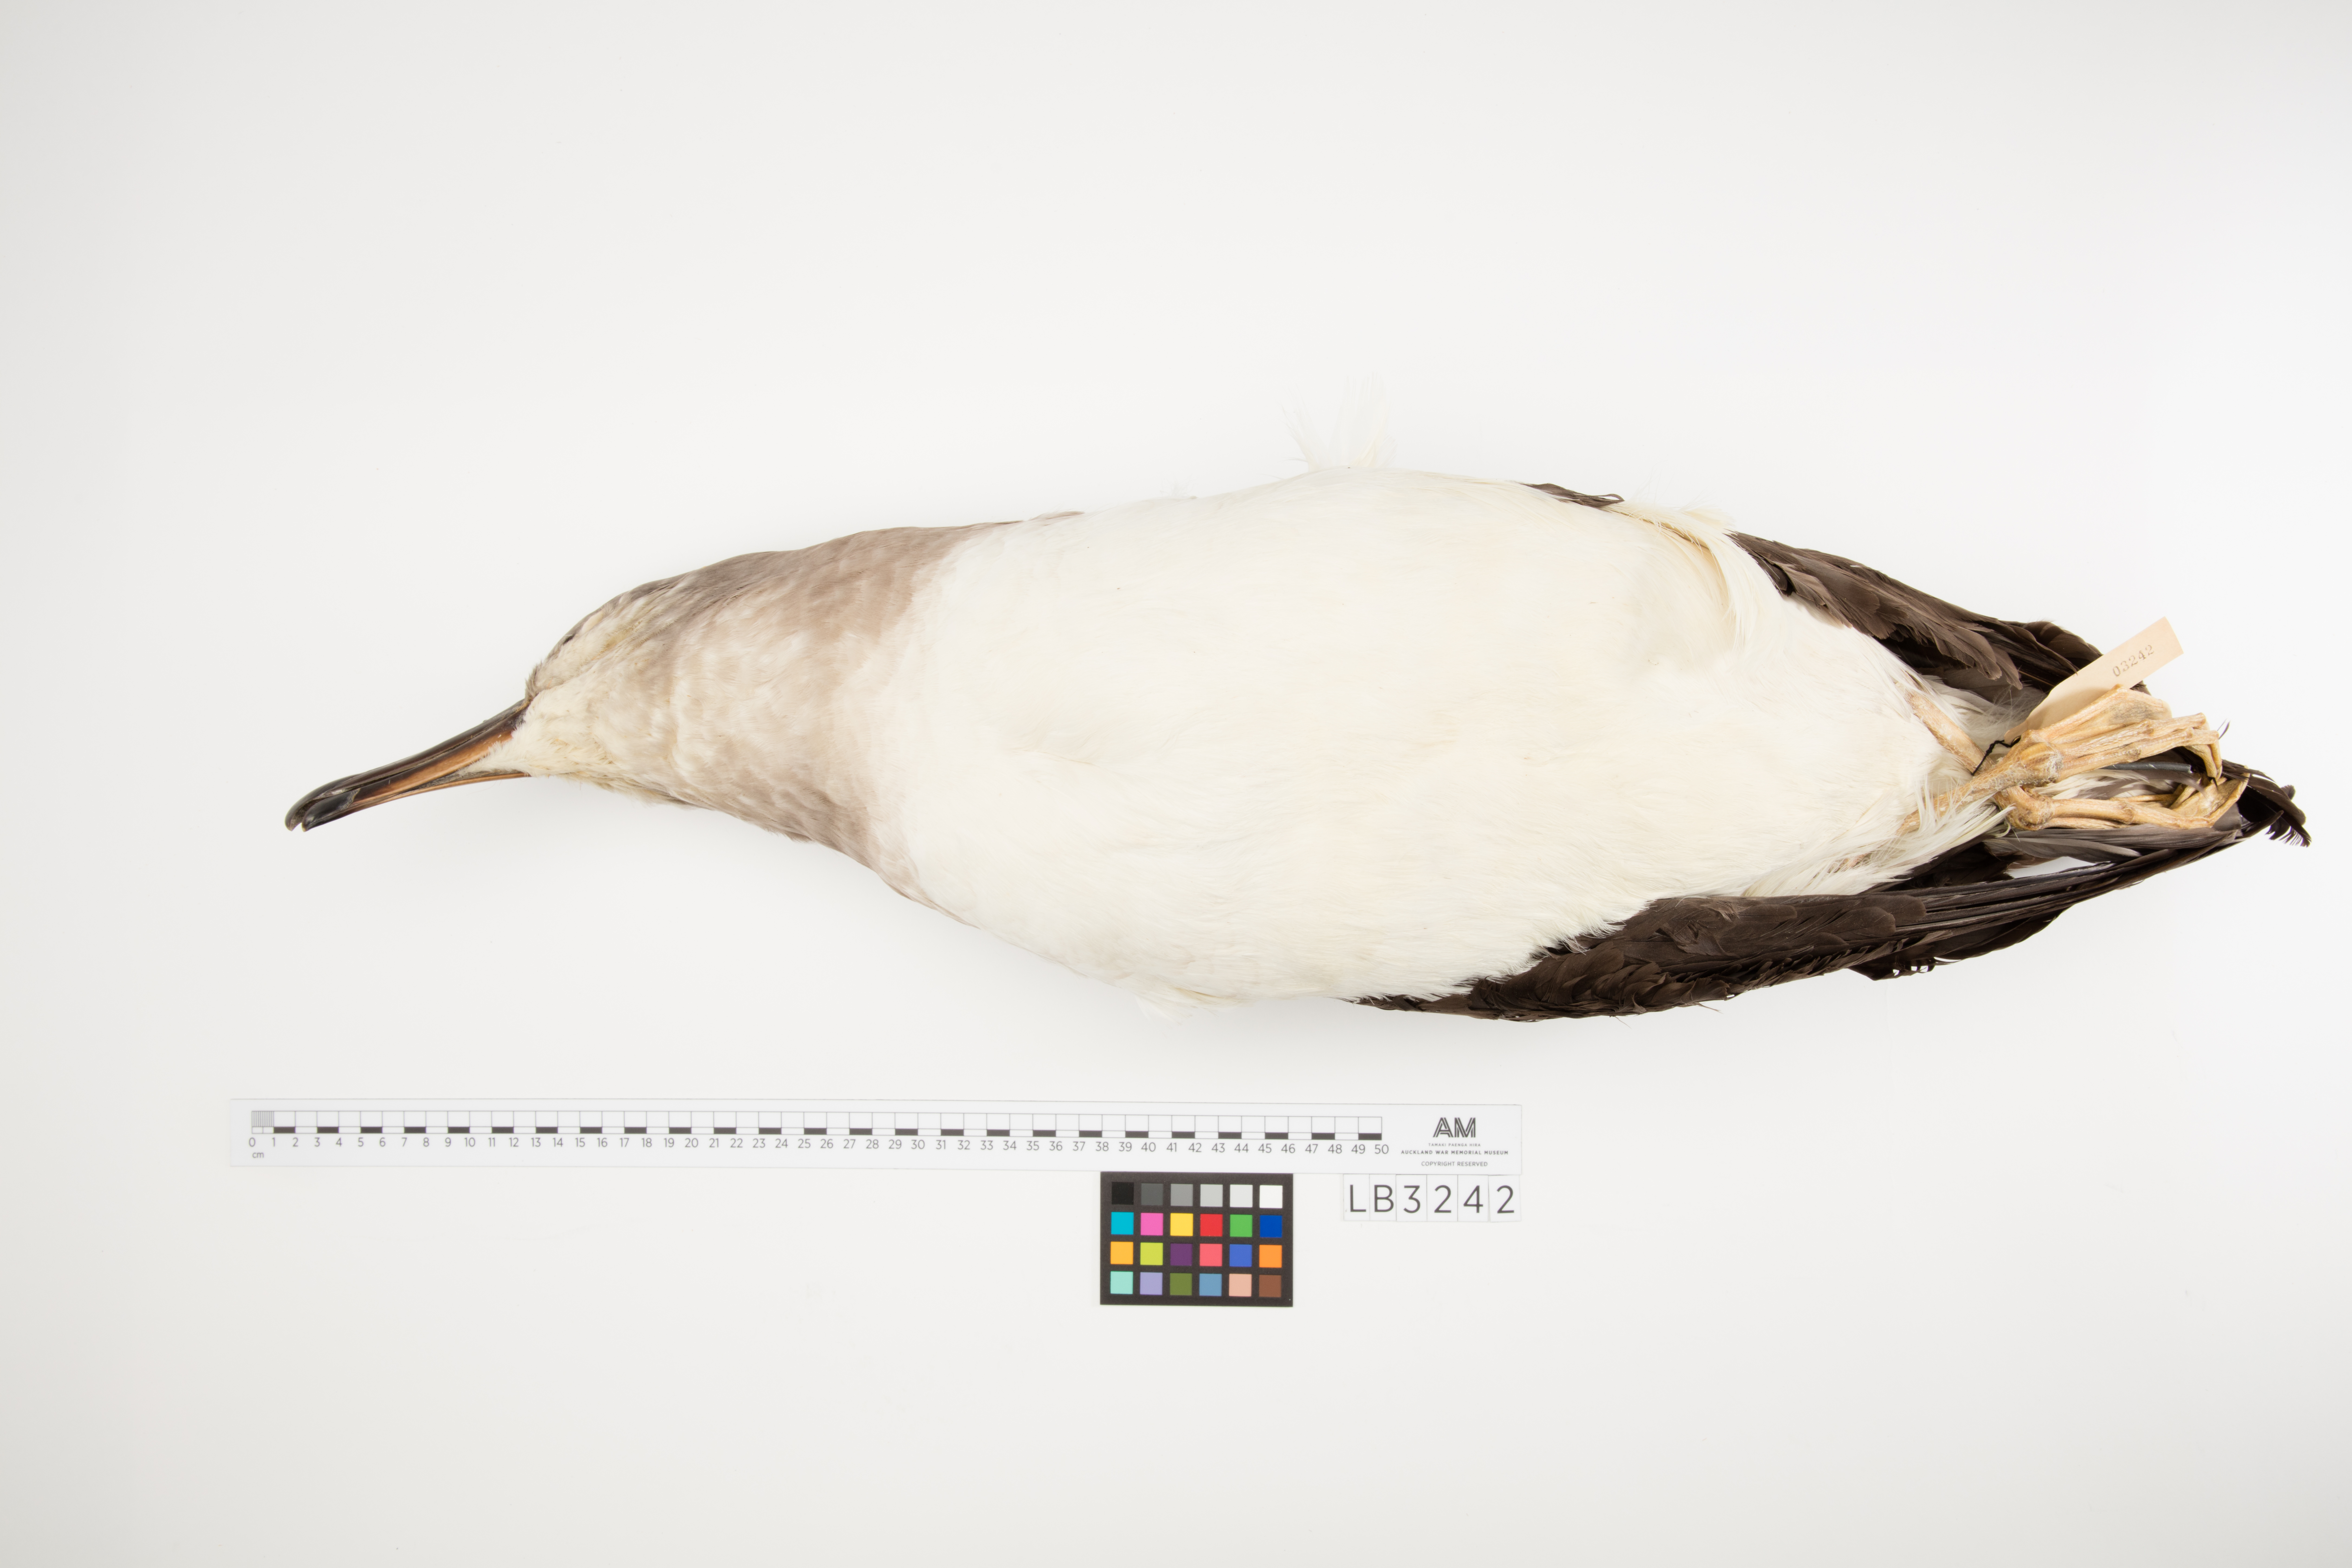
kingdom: Animalia
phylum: Chordata
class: Aves
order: Procellariiformes
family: Diomedeidae
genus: Thalassarche
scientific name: Thalassarche chrysostoma
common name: Grey-headed albatross
